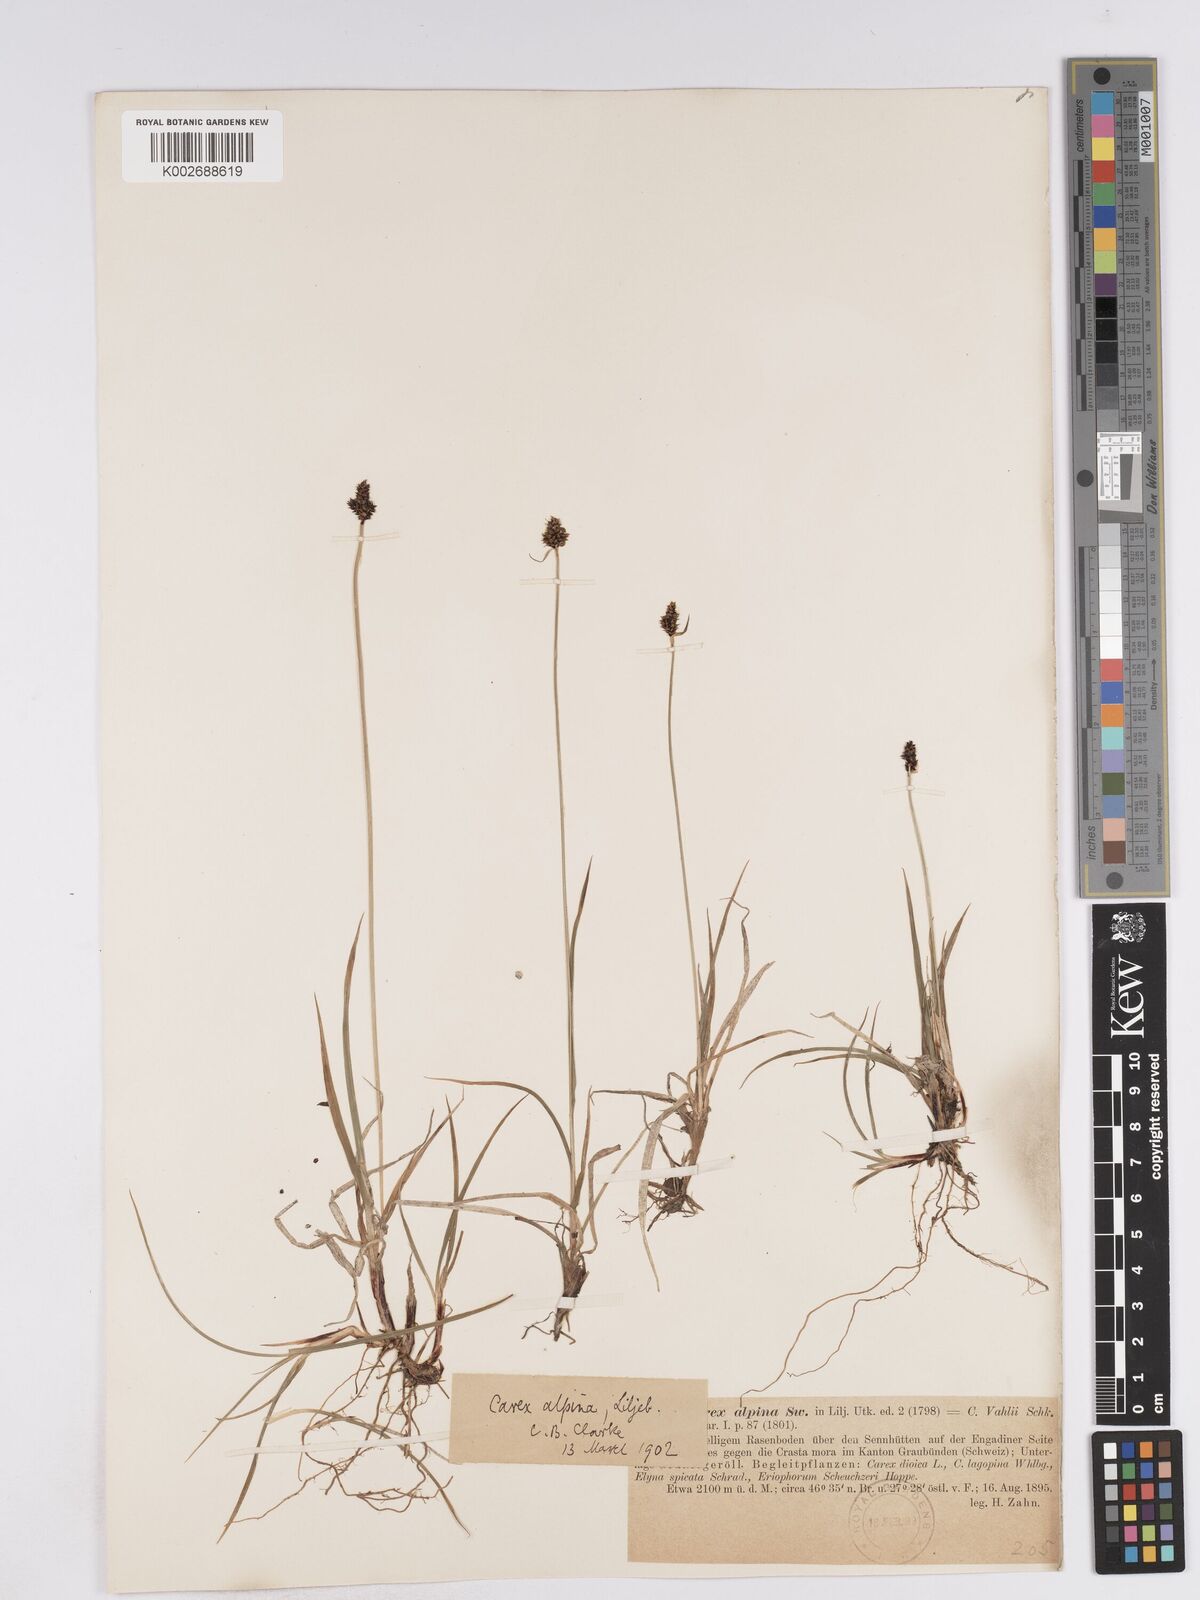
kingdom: Plantae
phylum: Tracheophyta
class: Liliopsida
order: Poales
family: Cyperaceae
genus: Carex
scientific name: Carex norvegica
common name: Close-headed alpine-sedge
